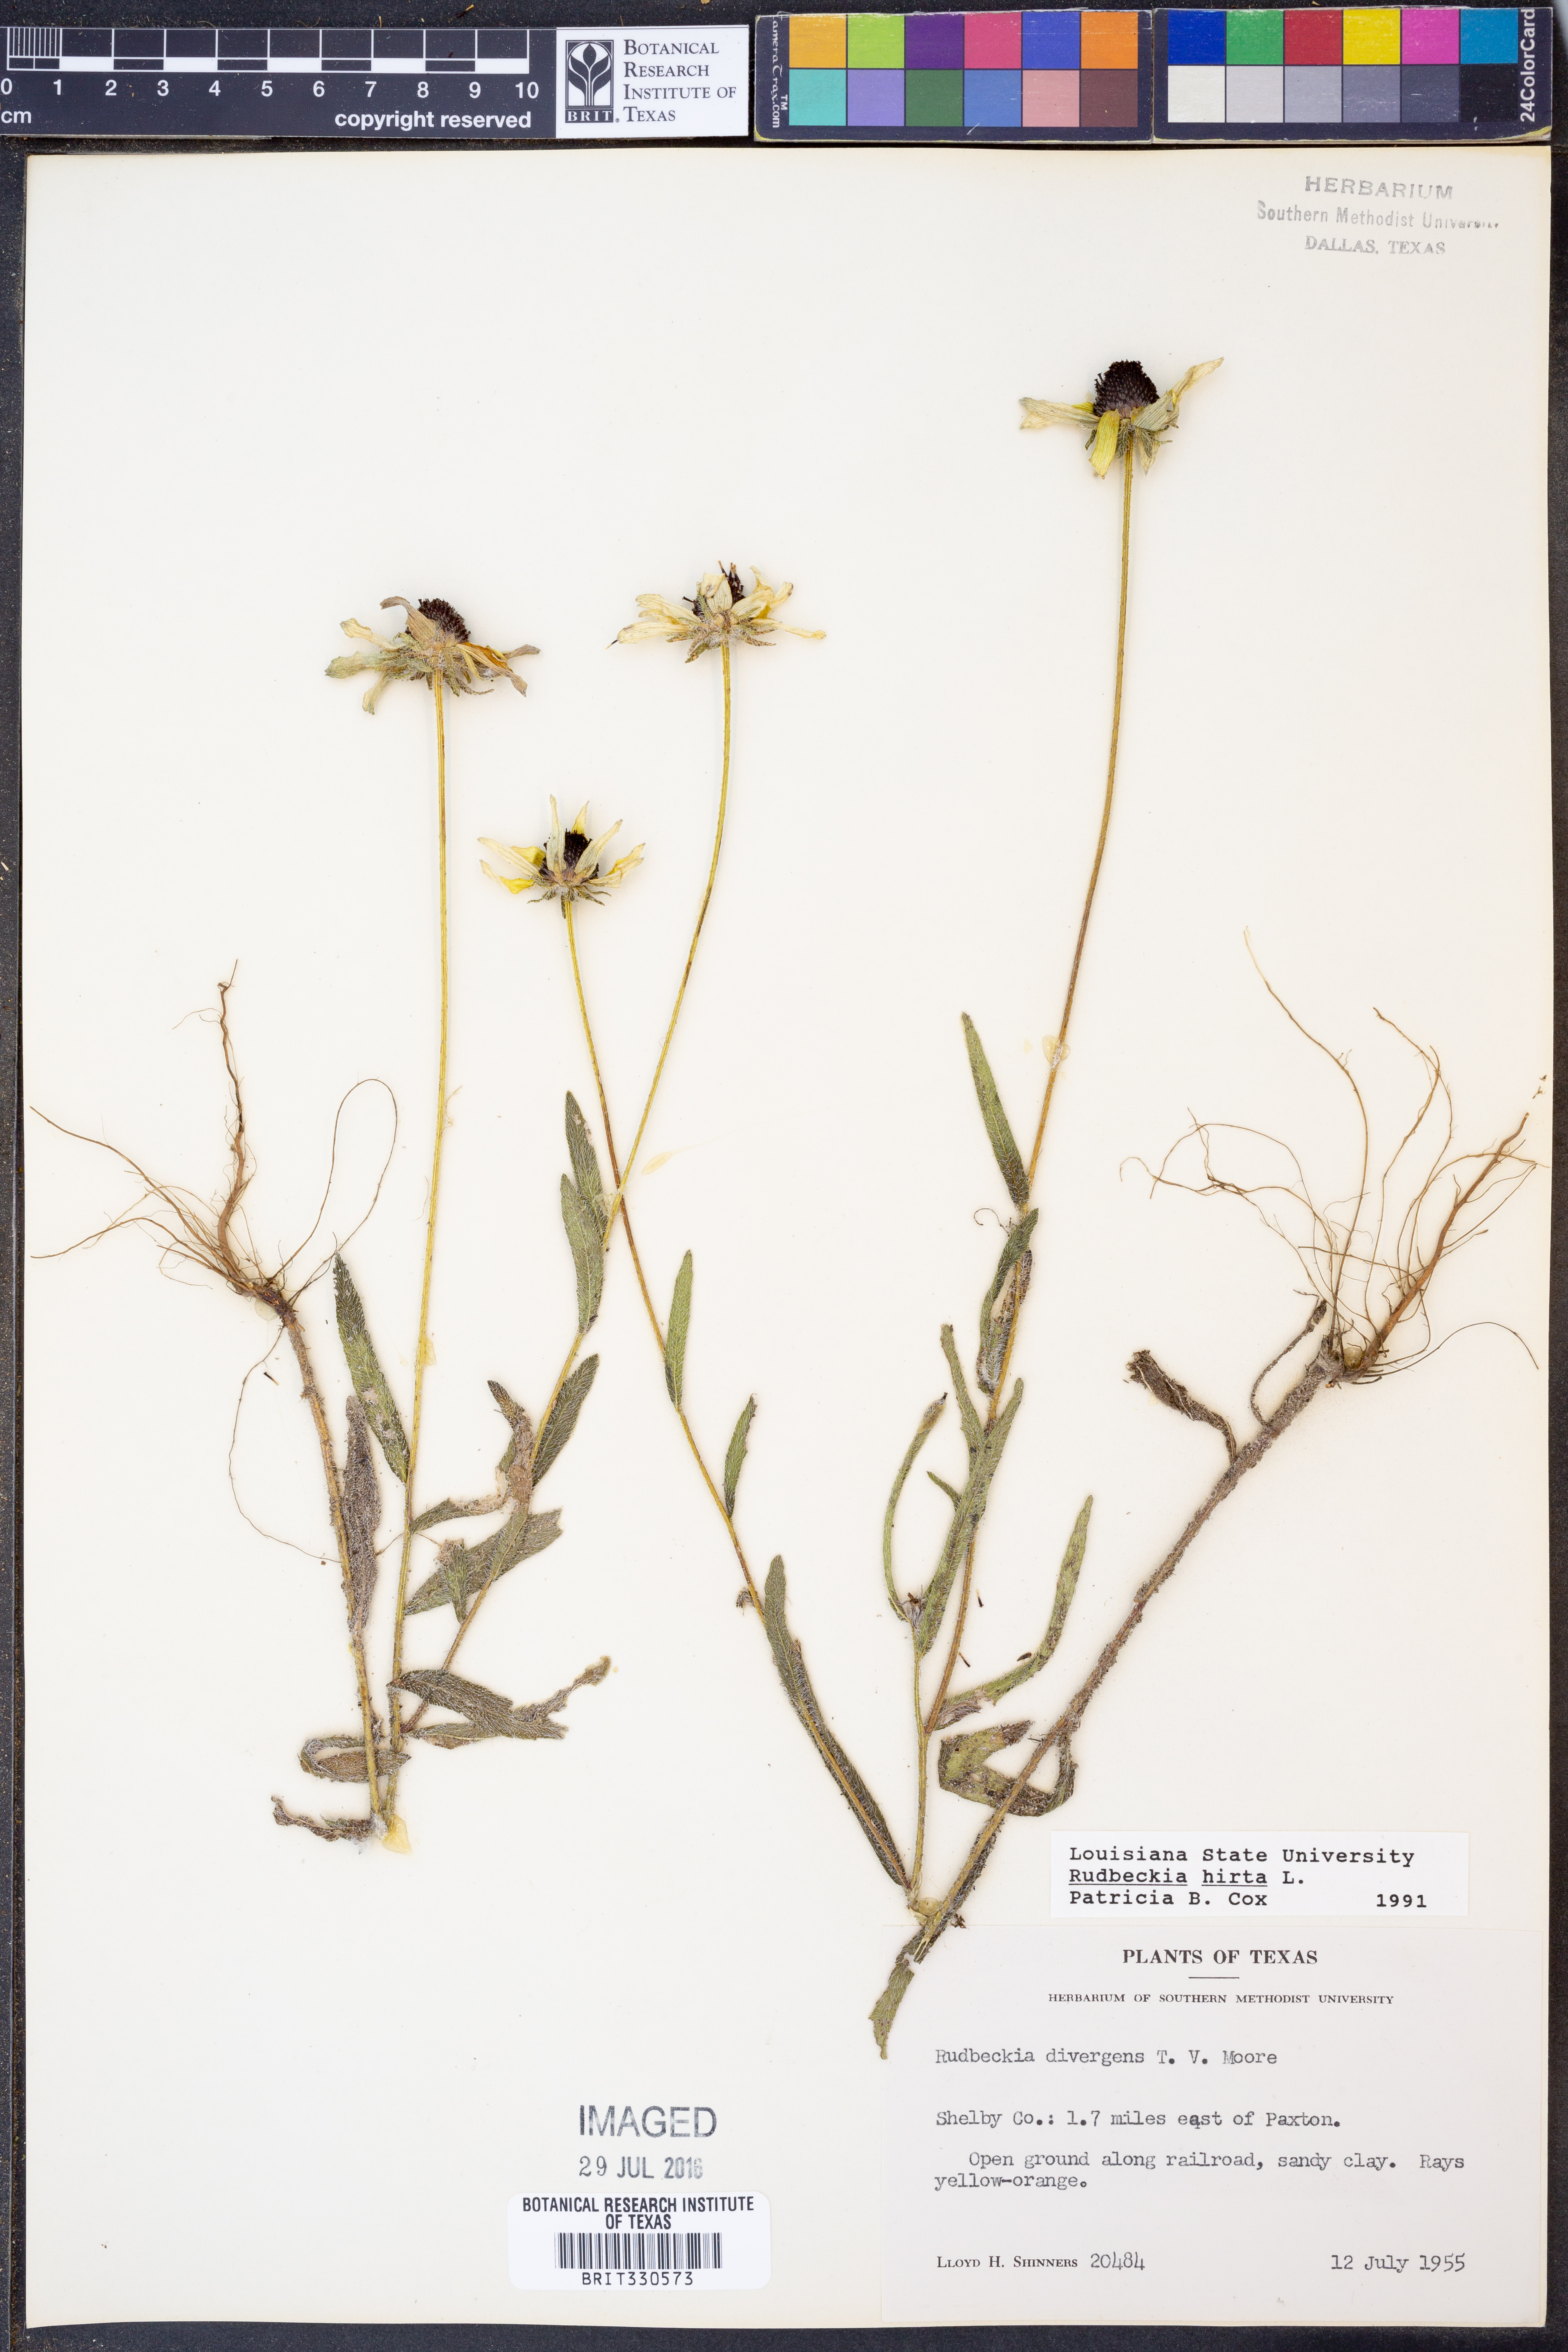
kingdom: Plantae
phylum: Tracheophyta
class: Magnoliopsida
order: Asterales
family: Asteraceae
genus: Rudbeckia
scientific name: Rudbeckia hirta
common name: Black-eyed-susan
